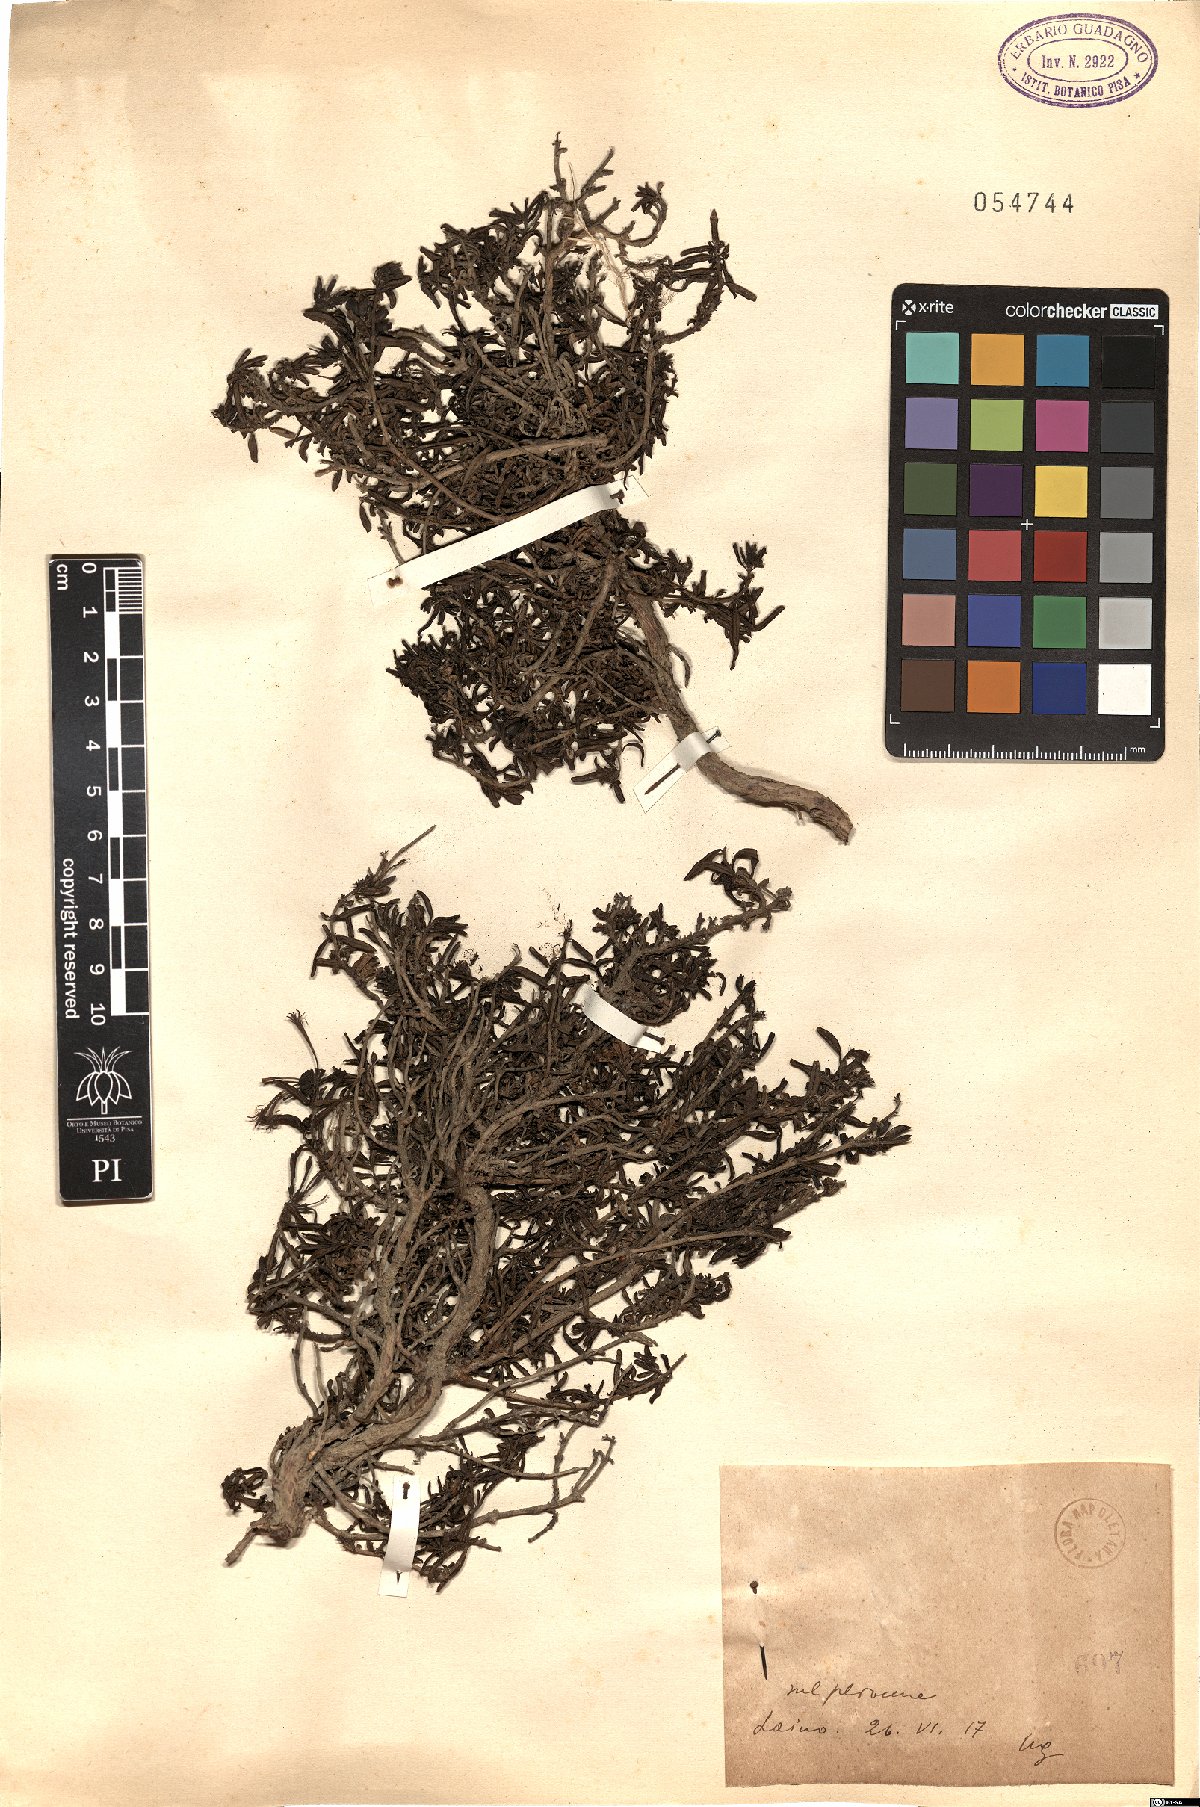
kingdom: Plantae
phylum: Tracheophyta
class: Magnoliopsida
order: Gentianales
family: Rubiaceae
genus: Plocama
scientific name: Plocama calabrica
